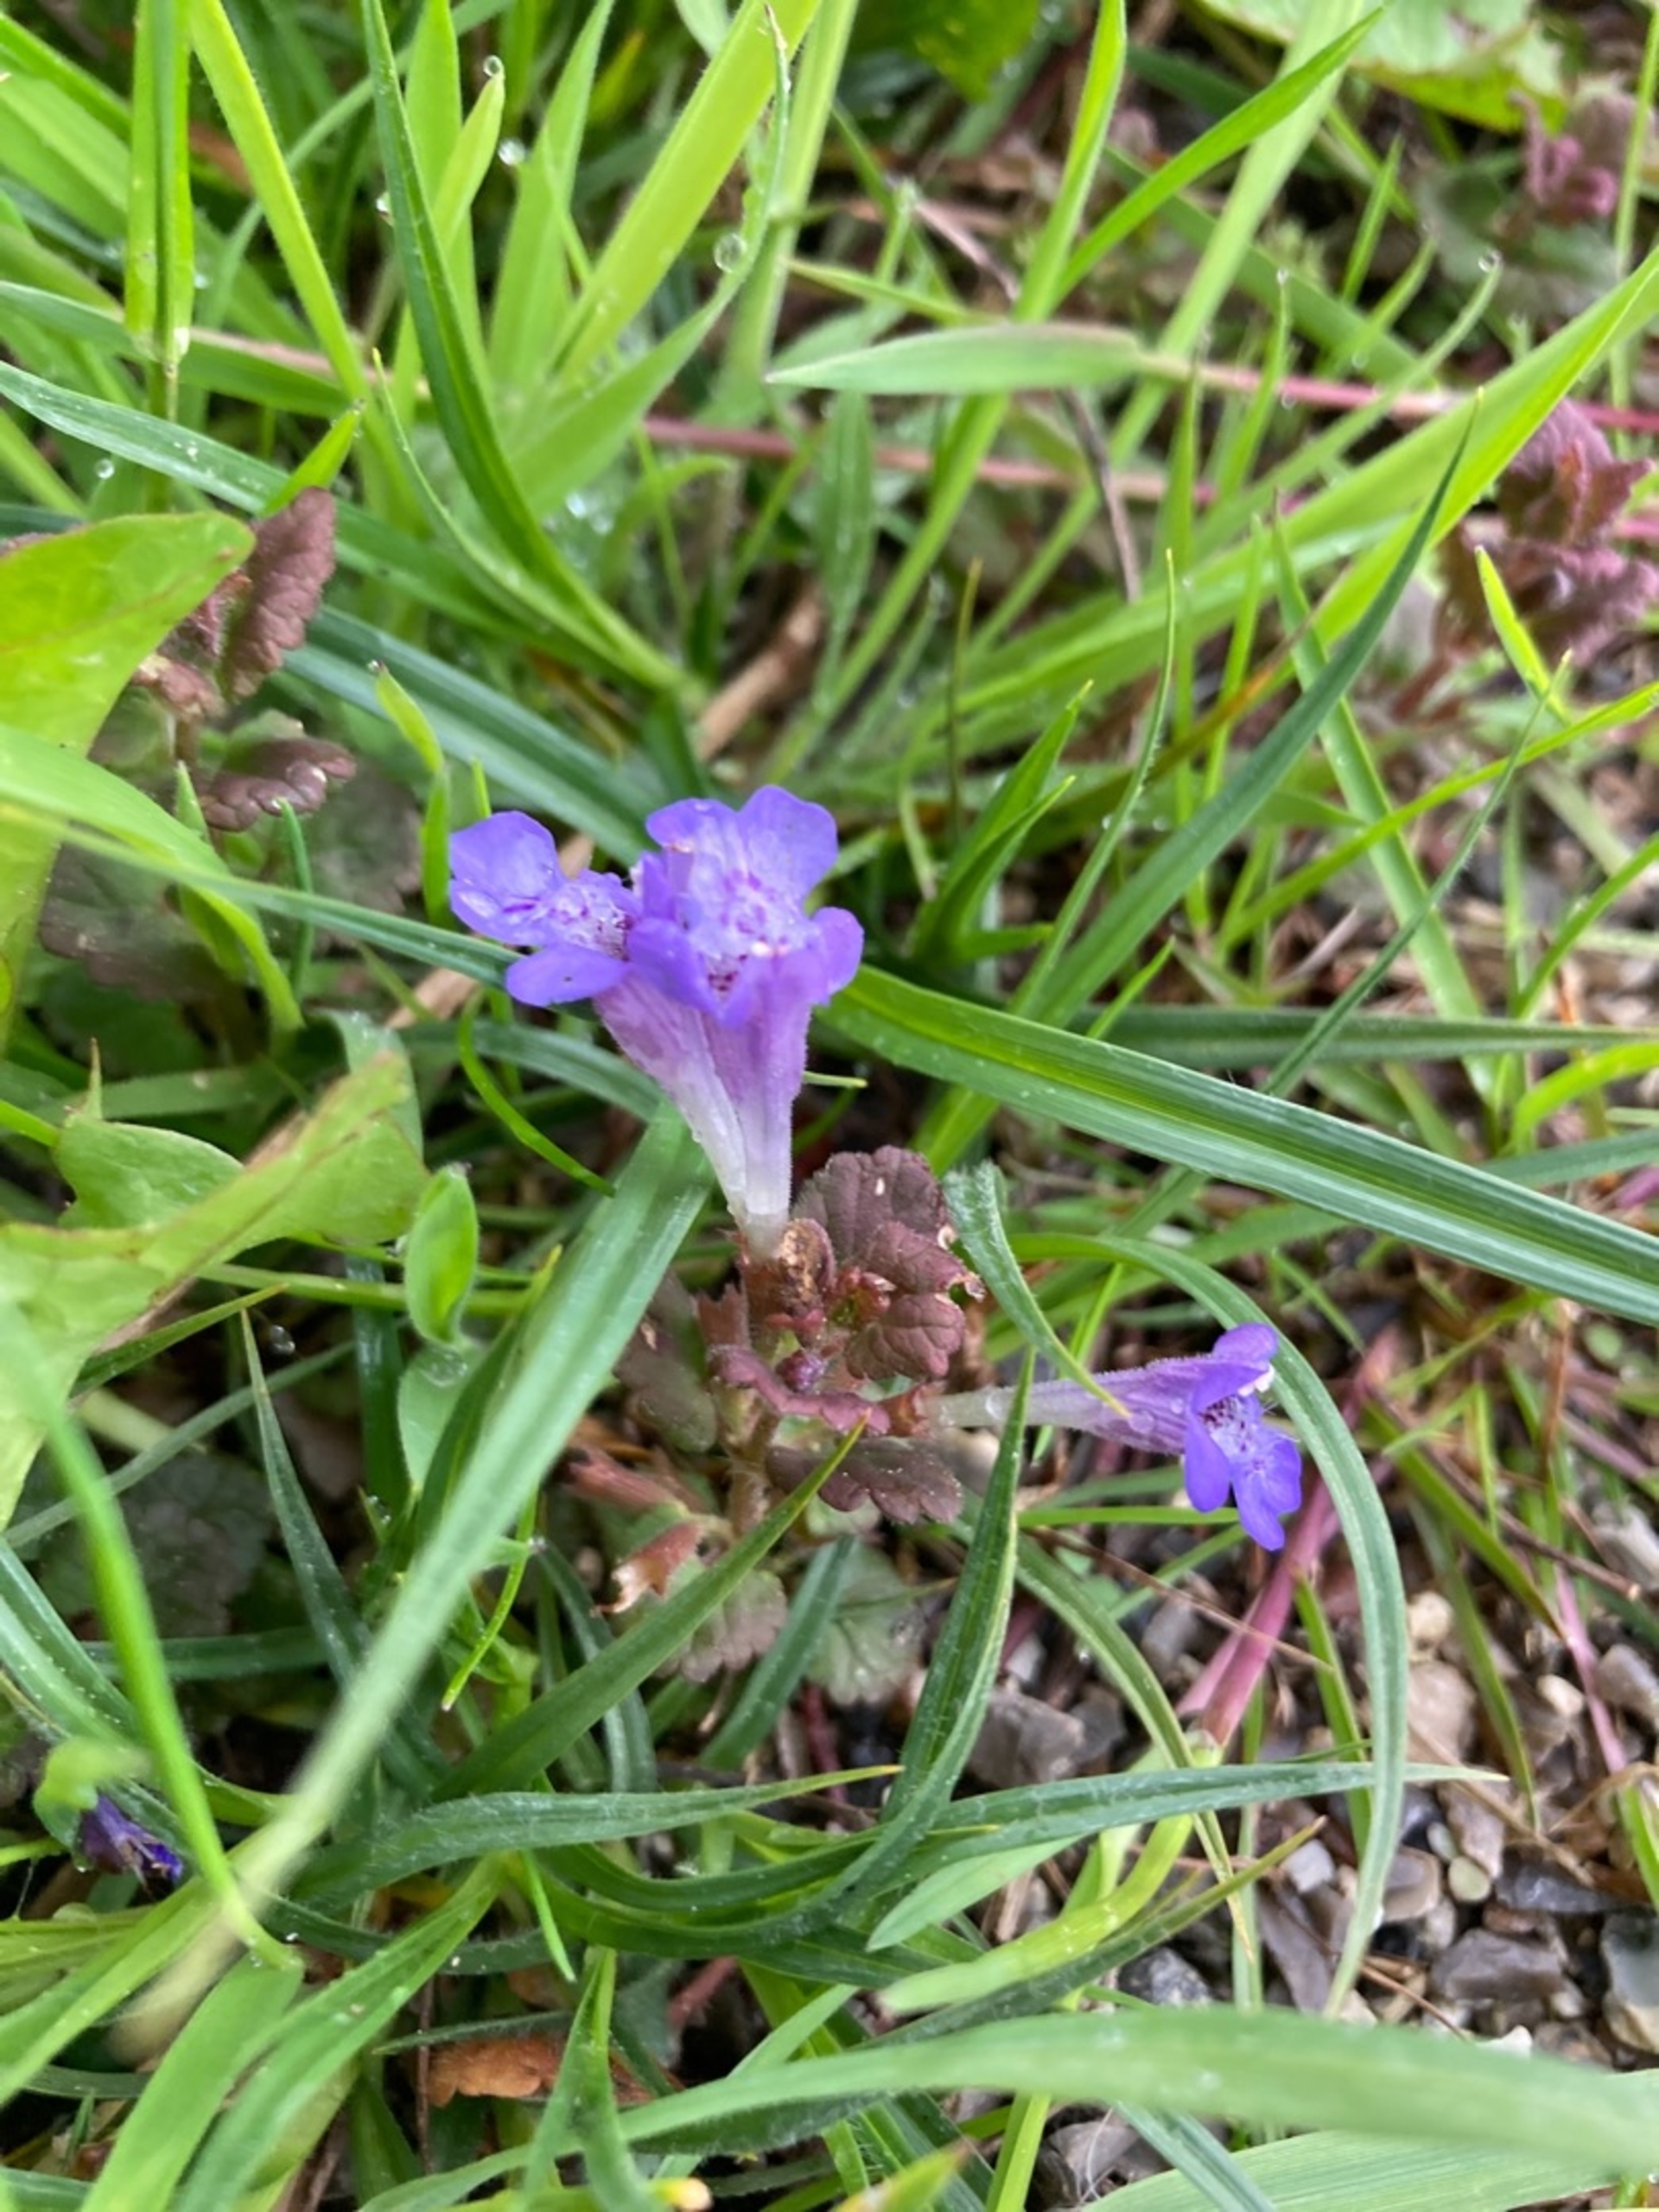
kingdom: Plantae
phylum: Tracheophyta
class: Magnoliopsida
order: Lamiales
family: Lamiaceae
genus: Glechoma
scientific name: Glechoma hederacea
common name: Korsknap
